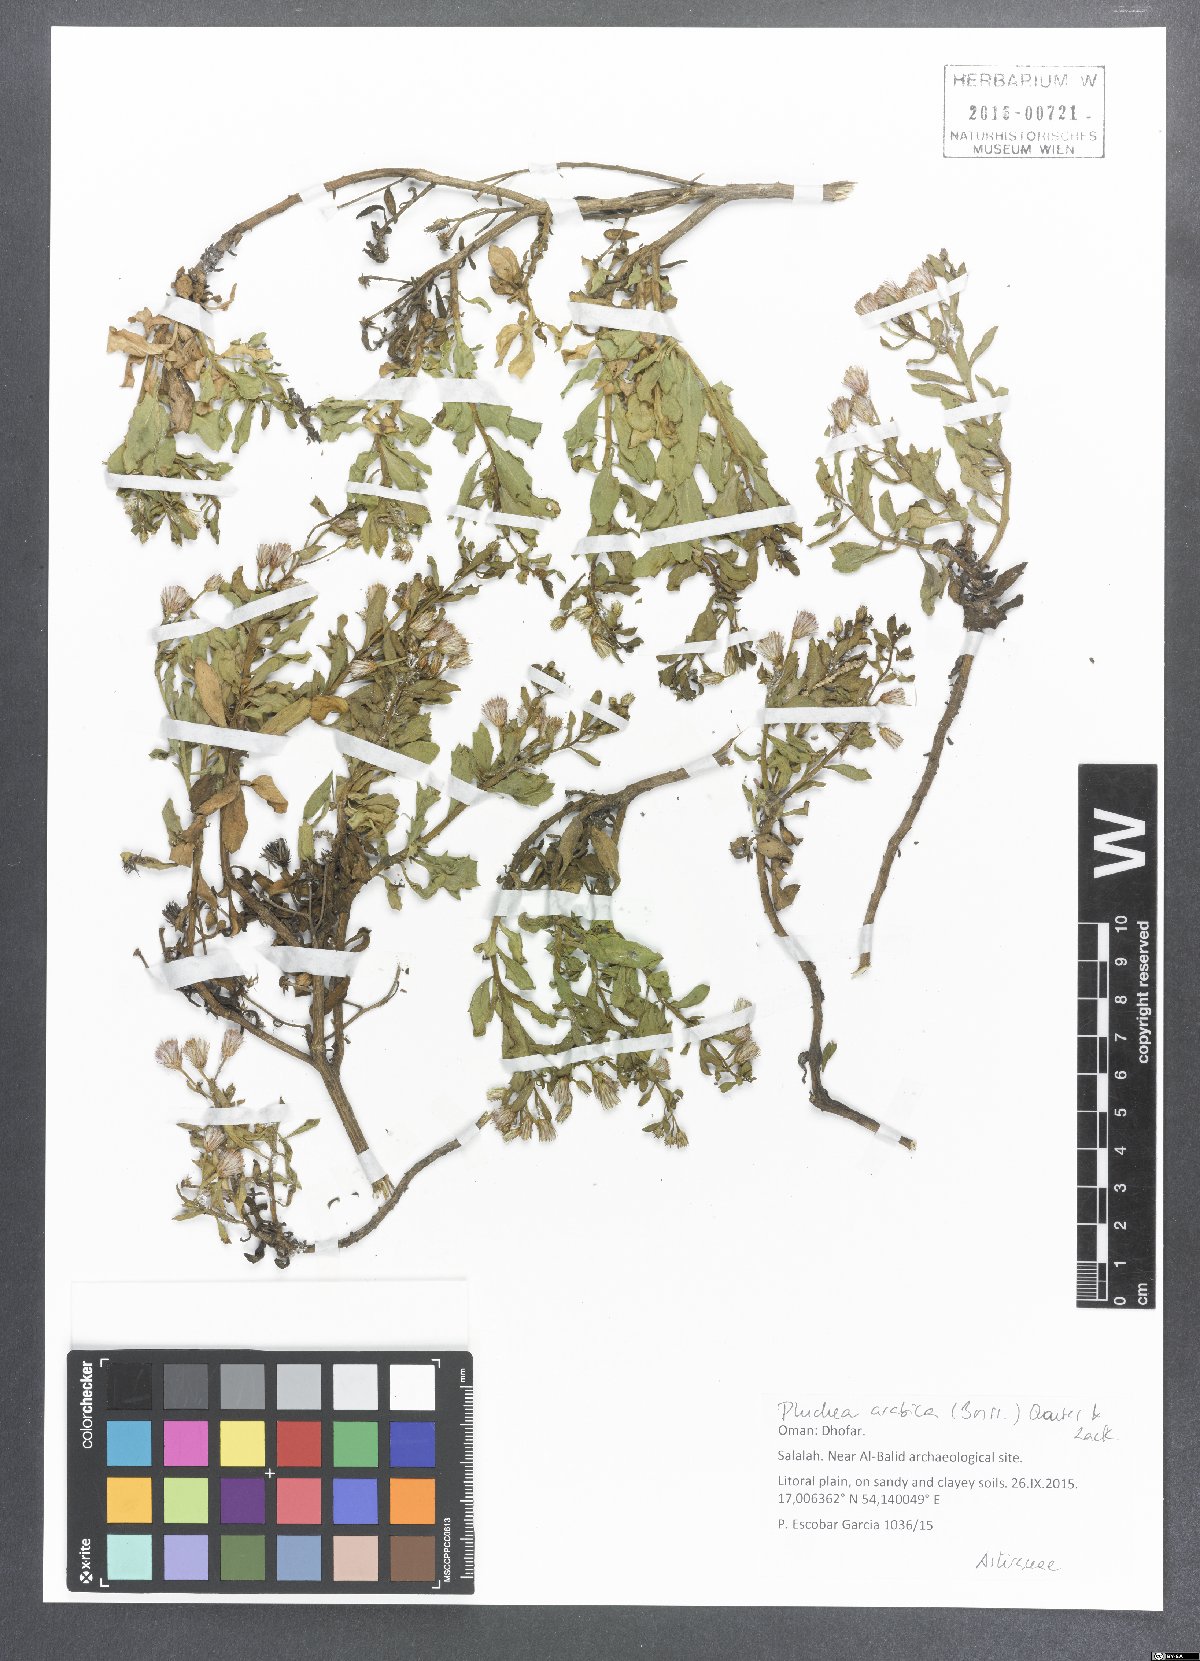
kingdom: Plantae
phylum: Tracheophyta
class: Magnoliopsida
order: Asterales
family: Asteraceae
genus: Pluchea
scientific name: Pluchea arabica
